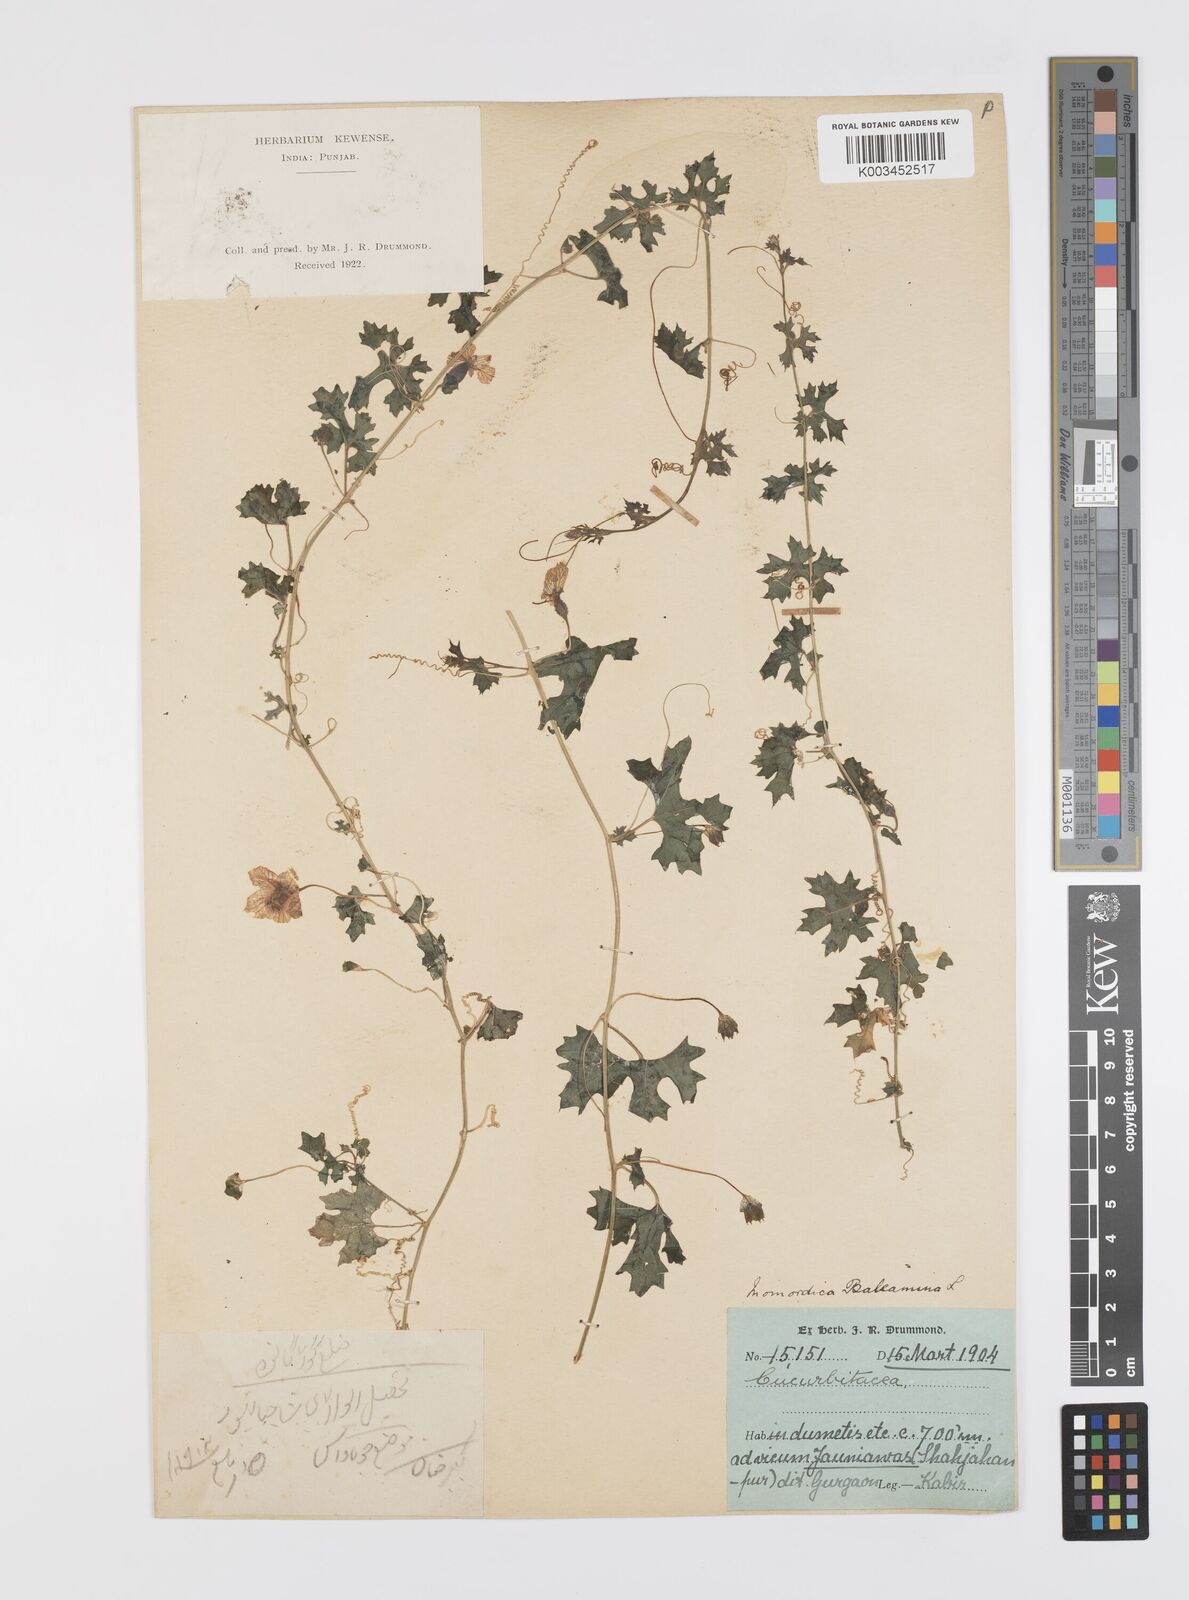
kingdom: Plantae
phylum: Tracheophyta
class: Magnoliopsida
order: Cucurbitales
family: Cucurbitaceae
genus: Momordica
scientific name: Momordica balsamina
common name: Southern balsampear
